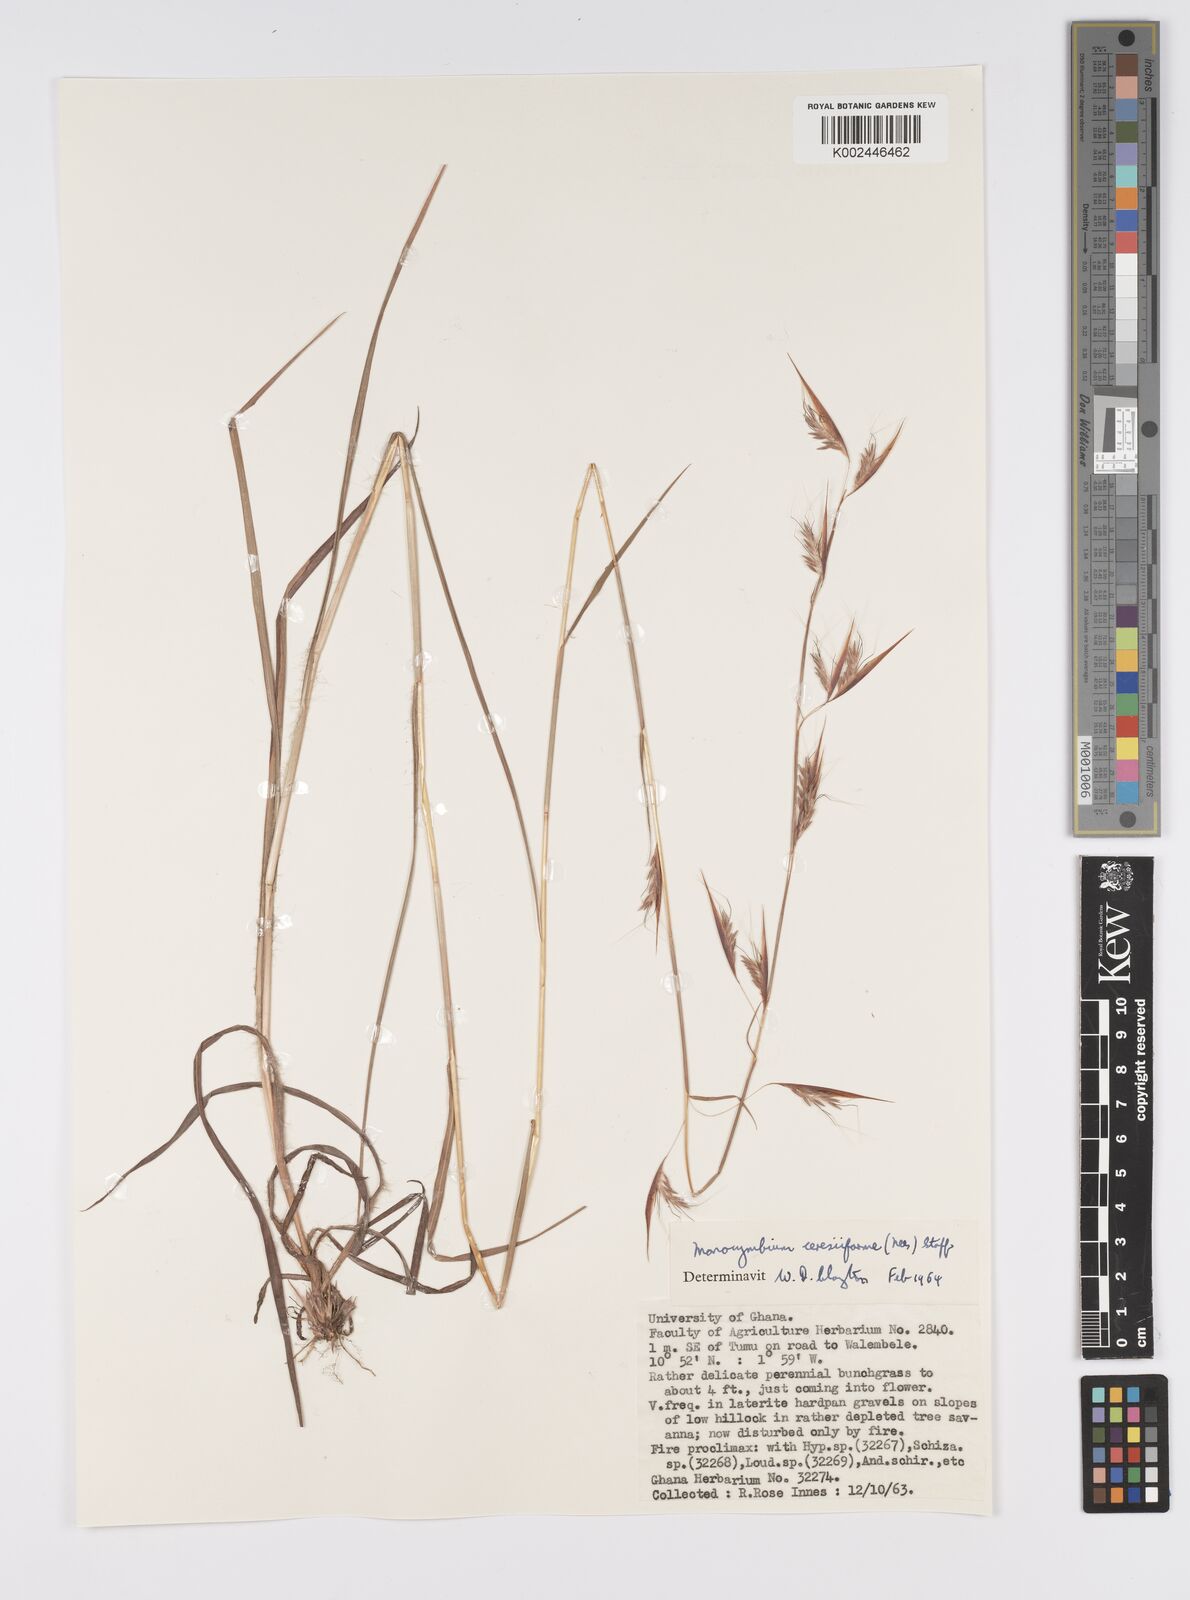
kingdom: Plantae
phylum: Tracheophyta
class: Liliopsida
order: Poales
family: Poaceae
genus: Monocymbium
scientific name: Monocymbium ceresiiforme
